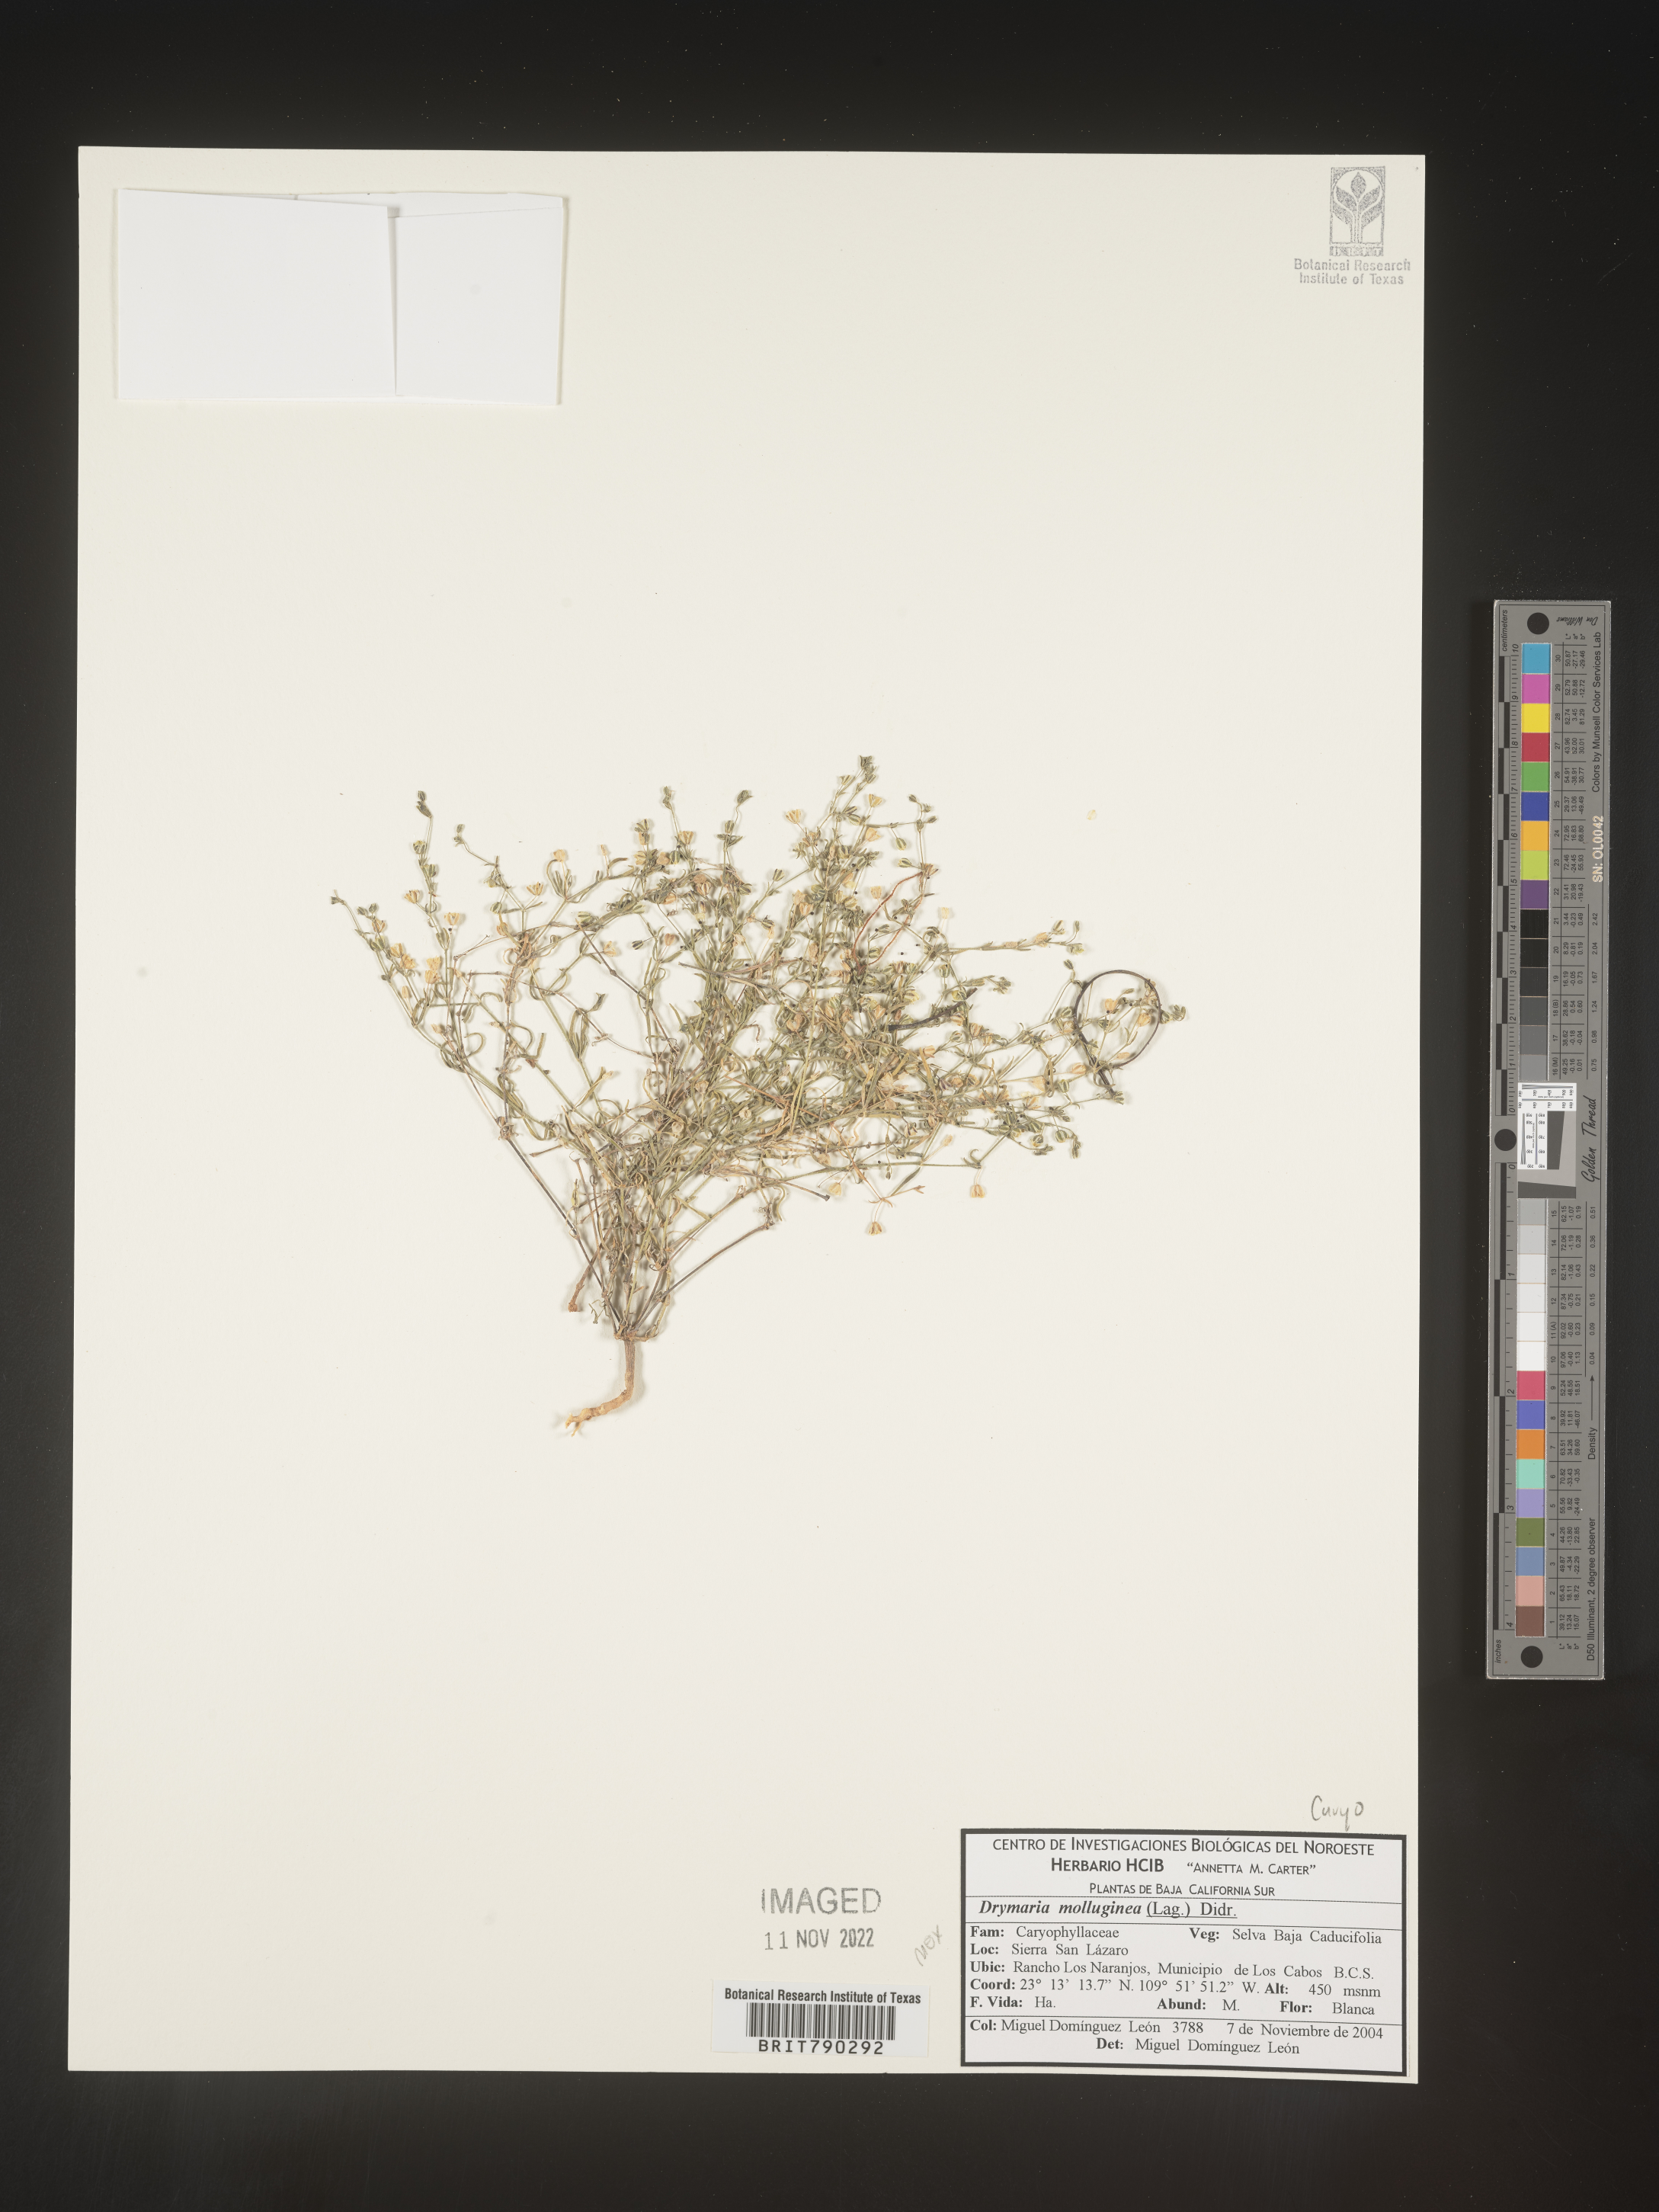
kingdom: Plantae
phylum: Tracheophyta
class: Magnoliopsida
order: Caryophyllales
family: Caryophyllaceae
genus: Drymaria
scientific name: Drymaria
